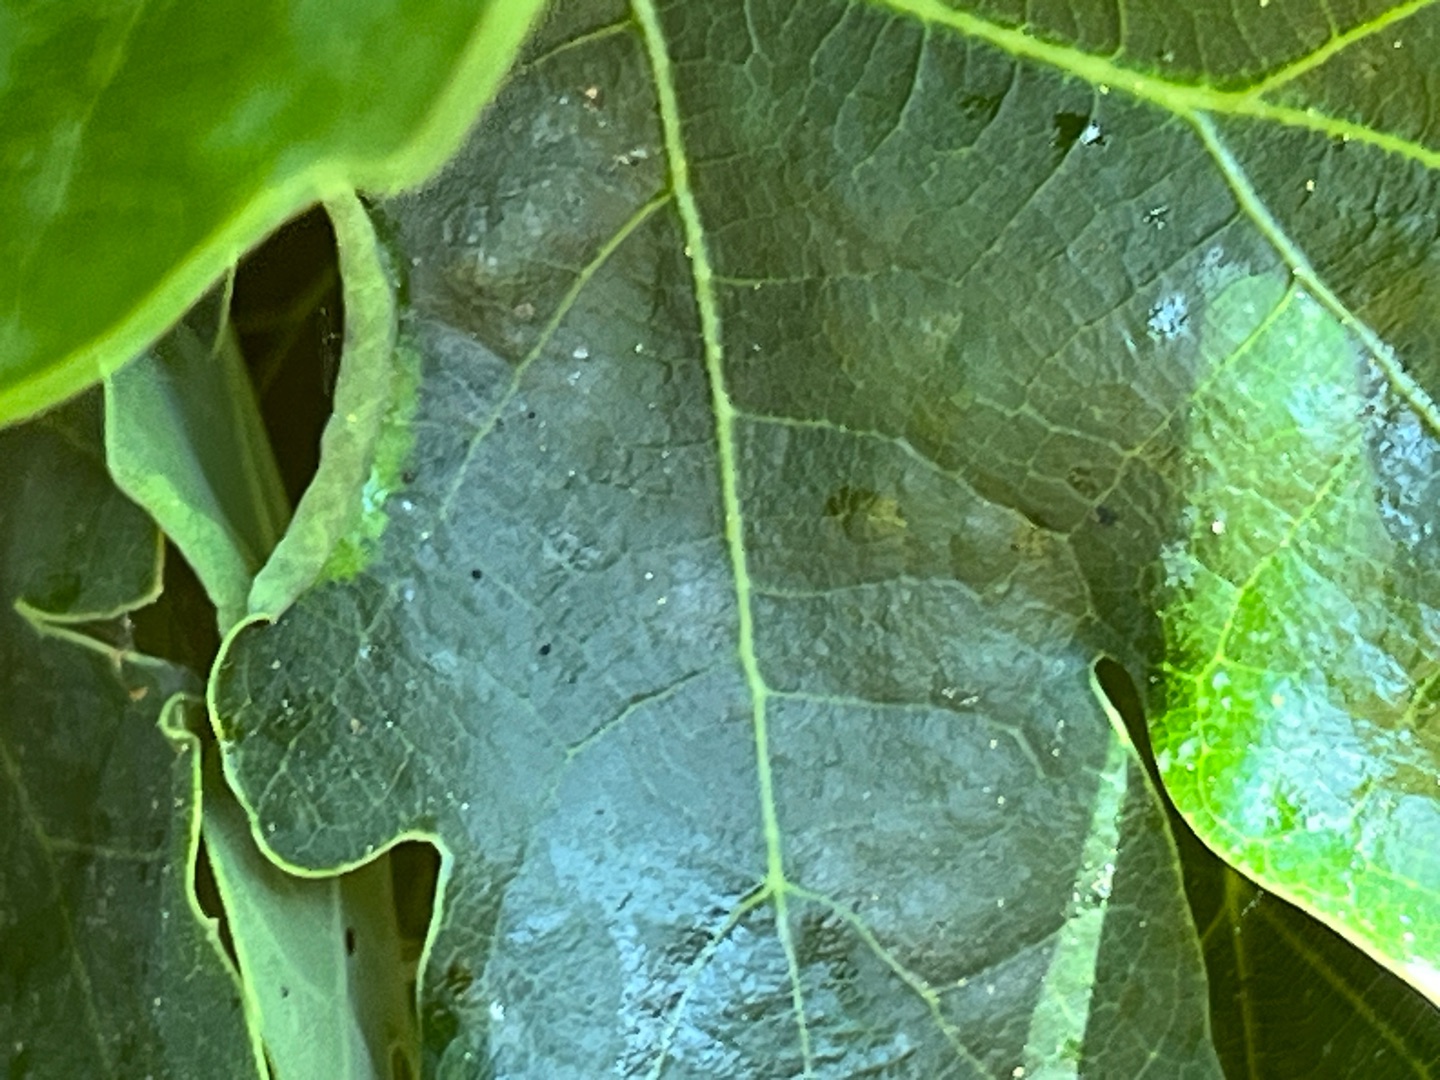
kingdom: Animalia
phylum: Arthropoda
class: Insecta
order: Diptera
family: Cecidomyiidae
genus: Macrodiplosis
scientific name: Macrodiplosis volvens
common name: Egerullegalmyg
